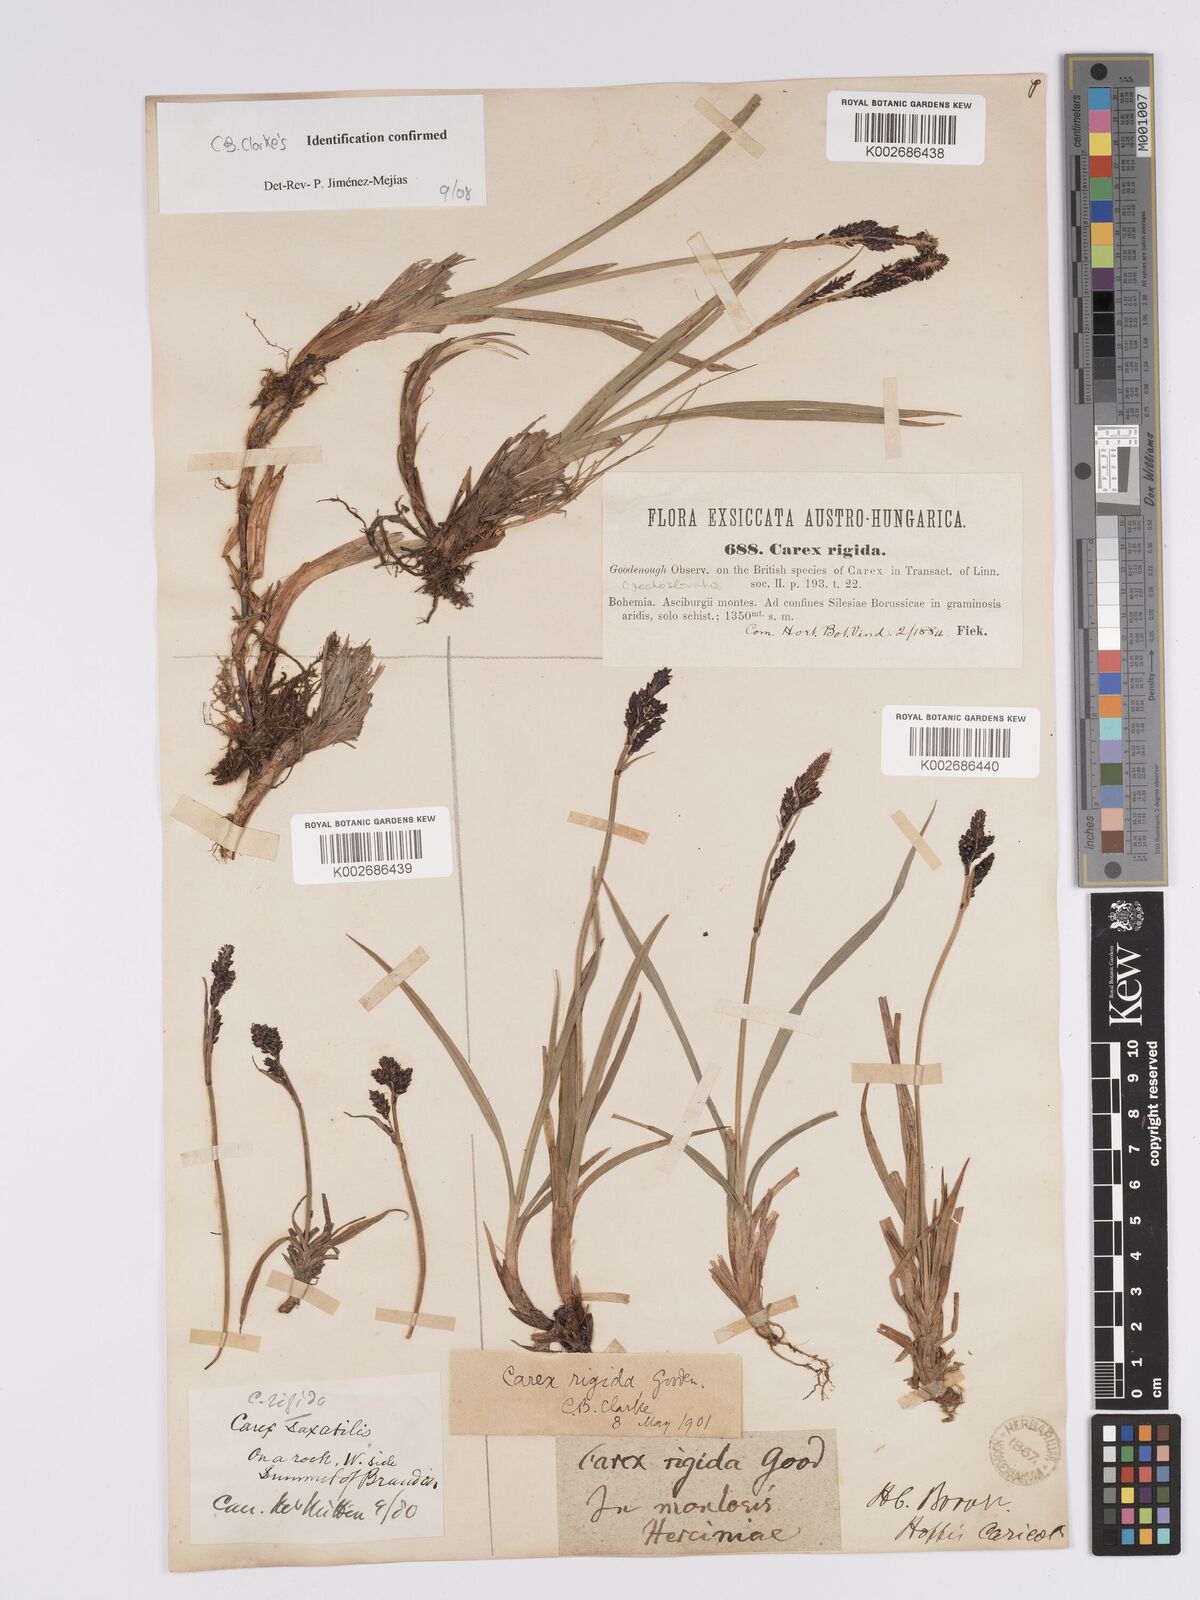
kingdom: Plantae
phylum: Tracheophyta
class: Liliopsida
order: Poales
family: Cyperaceae
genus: Carex
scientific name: Carex bigelowii
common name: Stiff sedge
